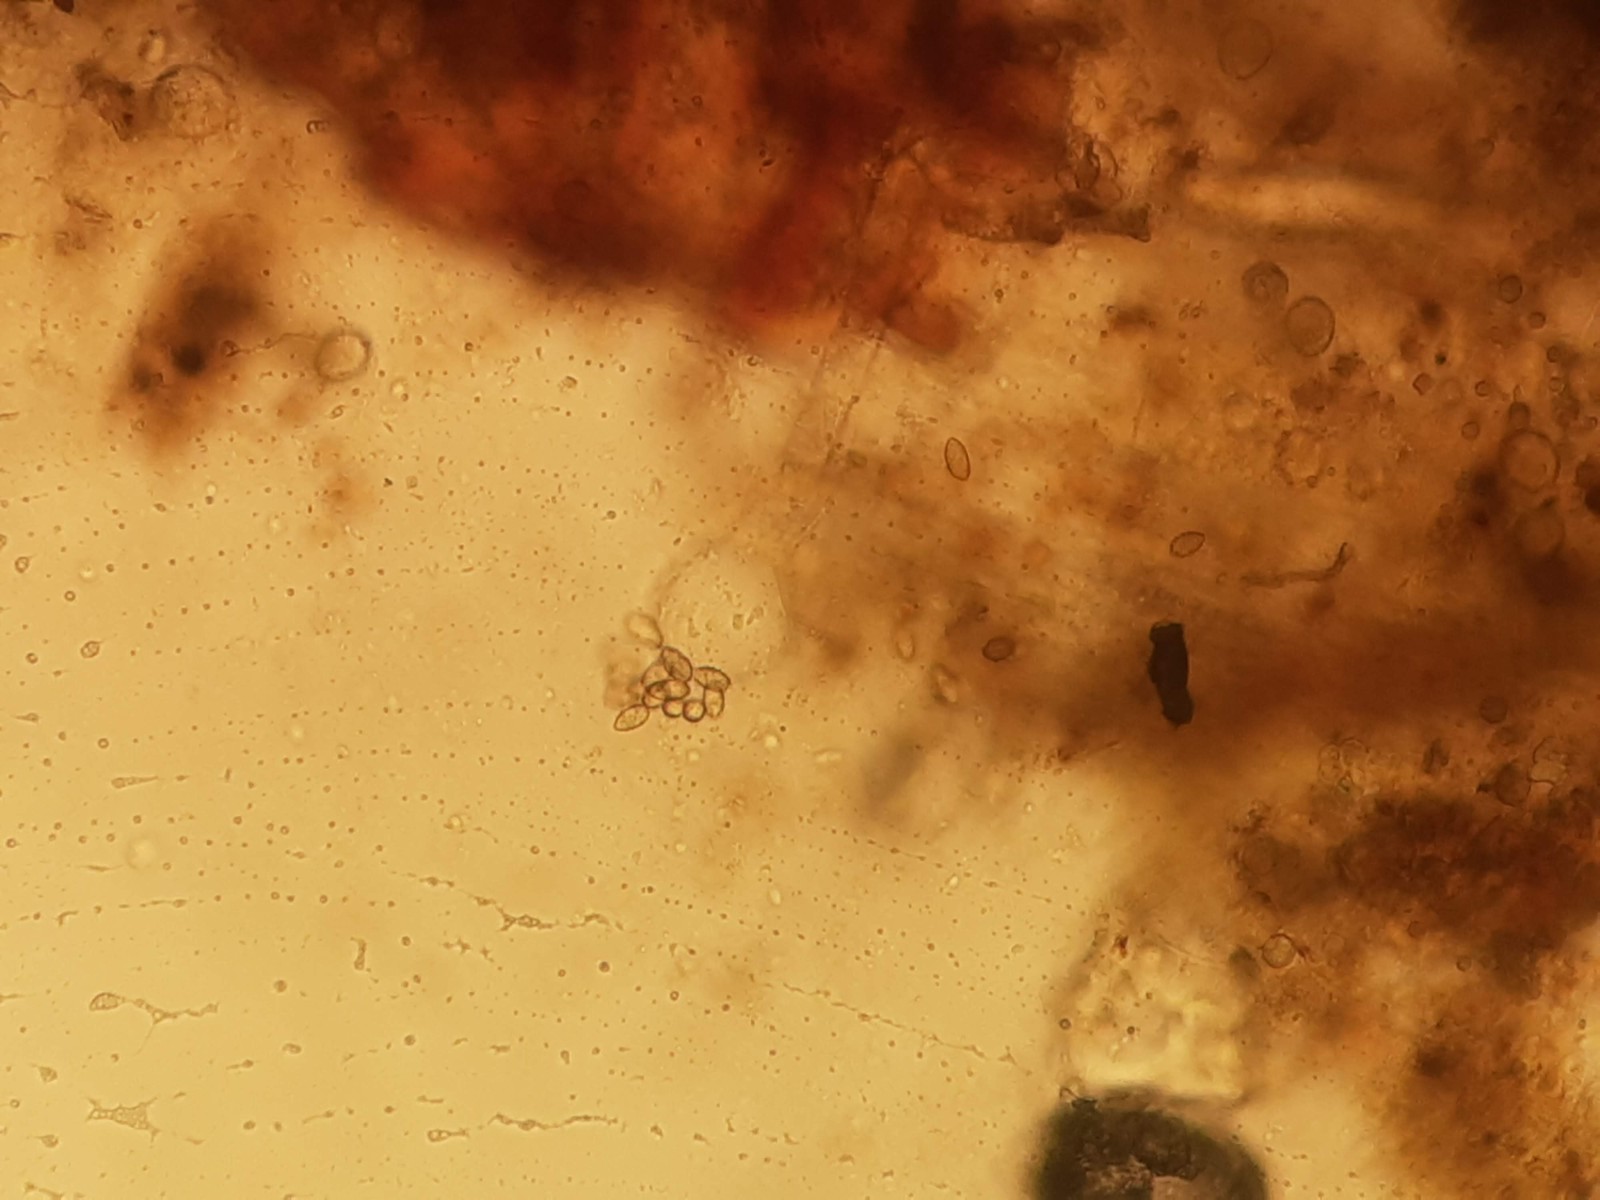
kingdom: Fungi
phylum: Ascomycota
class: Pezizomycetes
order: Pezizales
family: Pezizaceae
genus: Oedocephalum
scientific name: Oedocephalum
